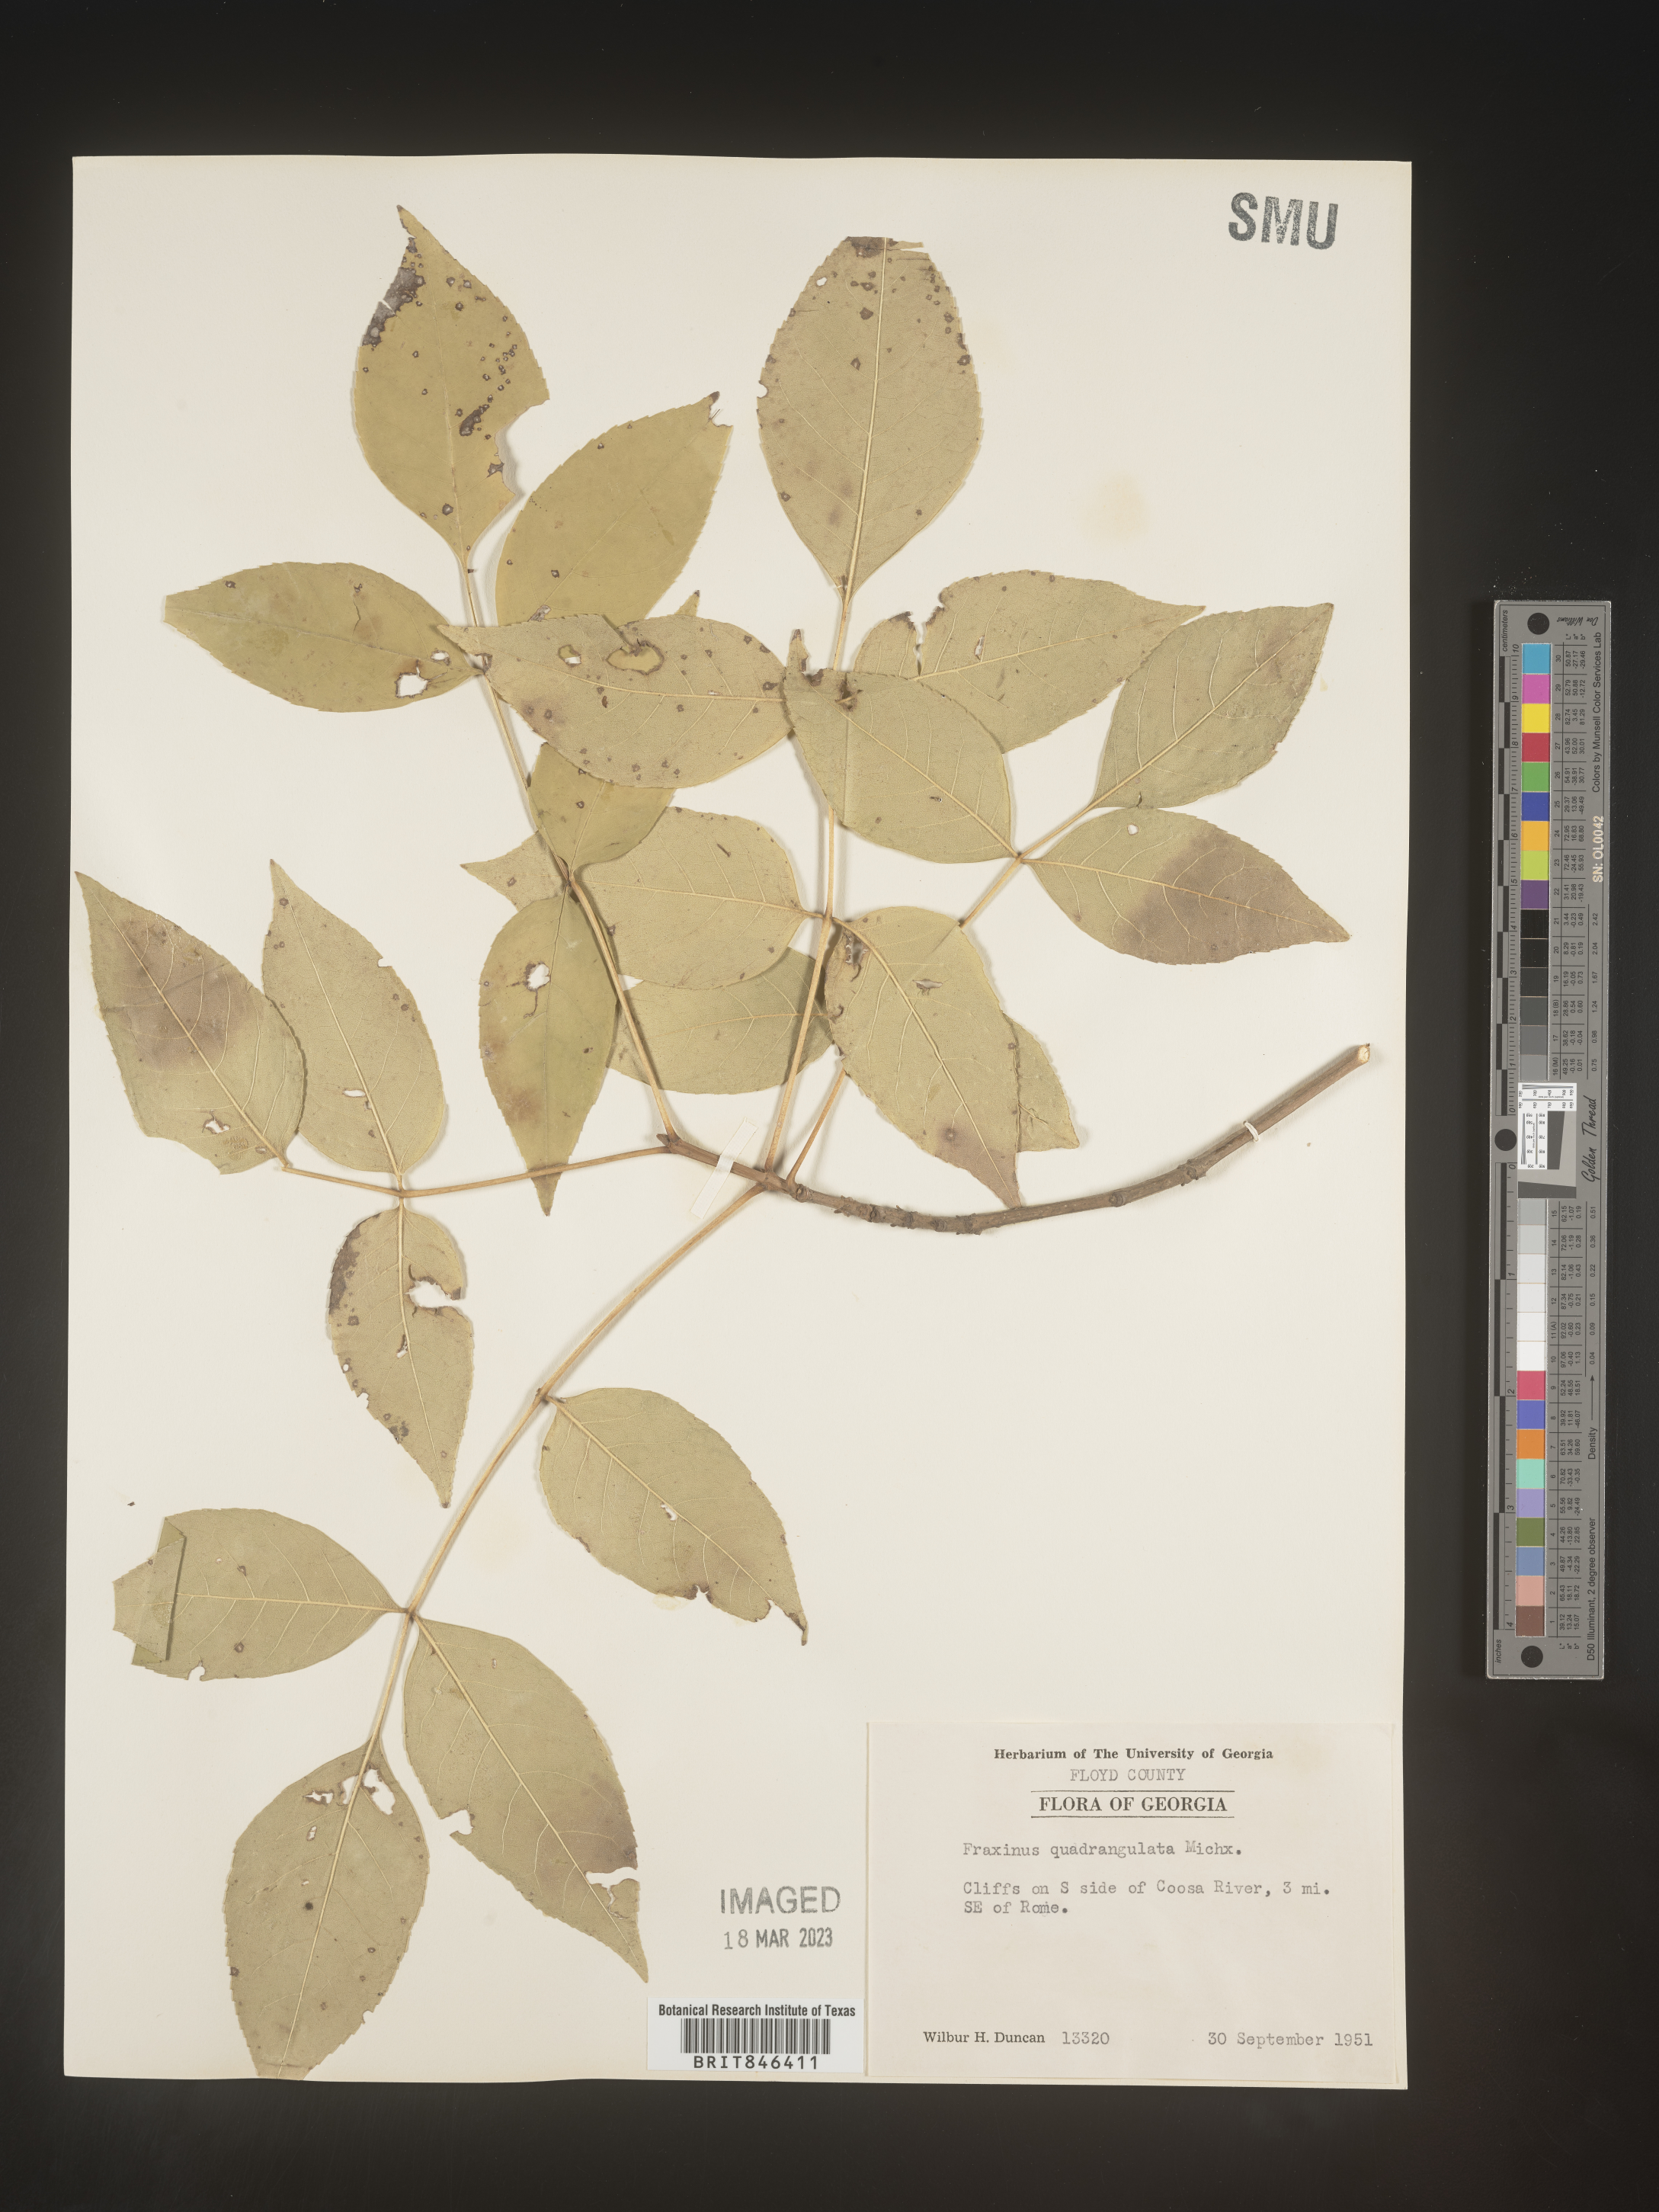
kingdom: Plantae
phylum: Tracheophyta
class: Magnoliopsida
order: Lamiales
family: Oleaceae
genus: Fraxinus
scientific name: Fraxinus quadrangulata
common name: Blue ash
